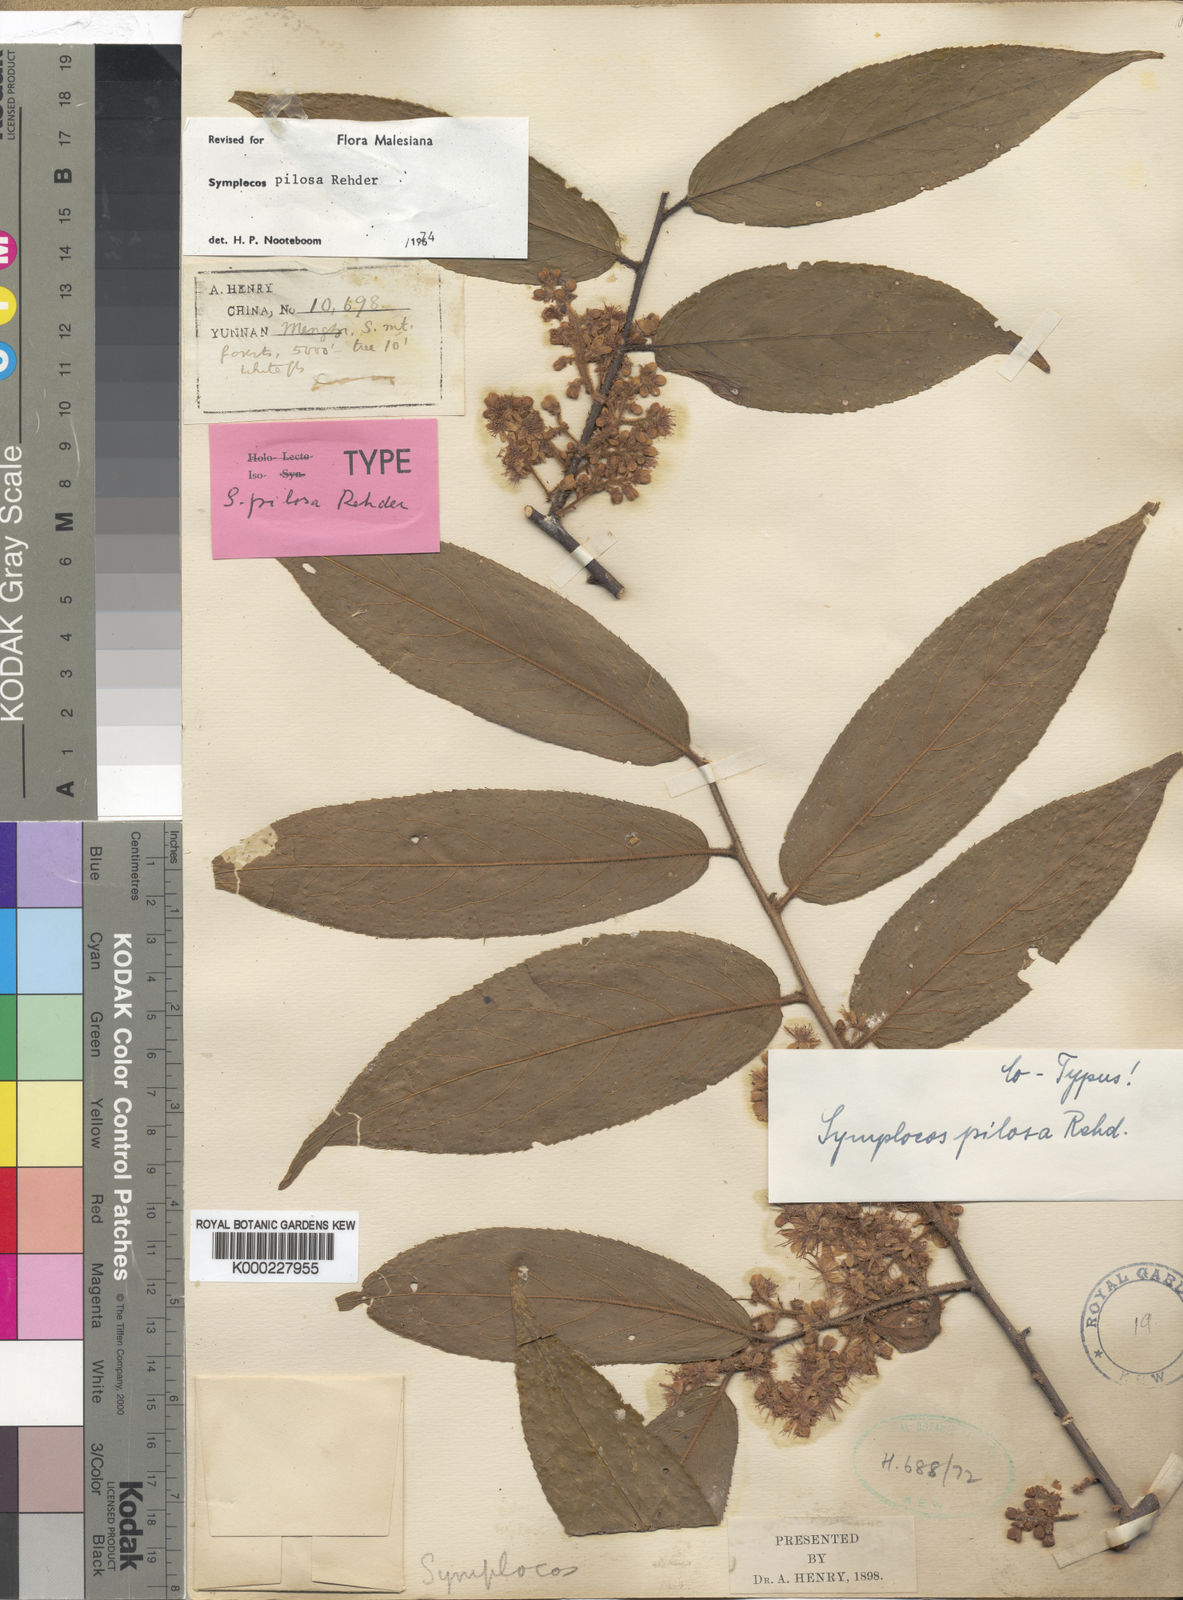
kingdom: Plantae
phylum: Tracheophyta
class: Magnoliopsida
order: Ericales
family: Symplocaceae
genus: Symplocos
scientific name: Symplocos pilosa
